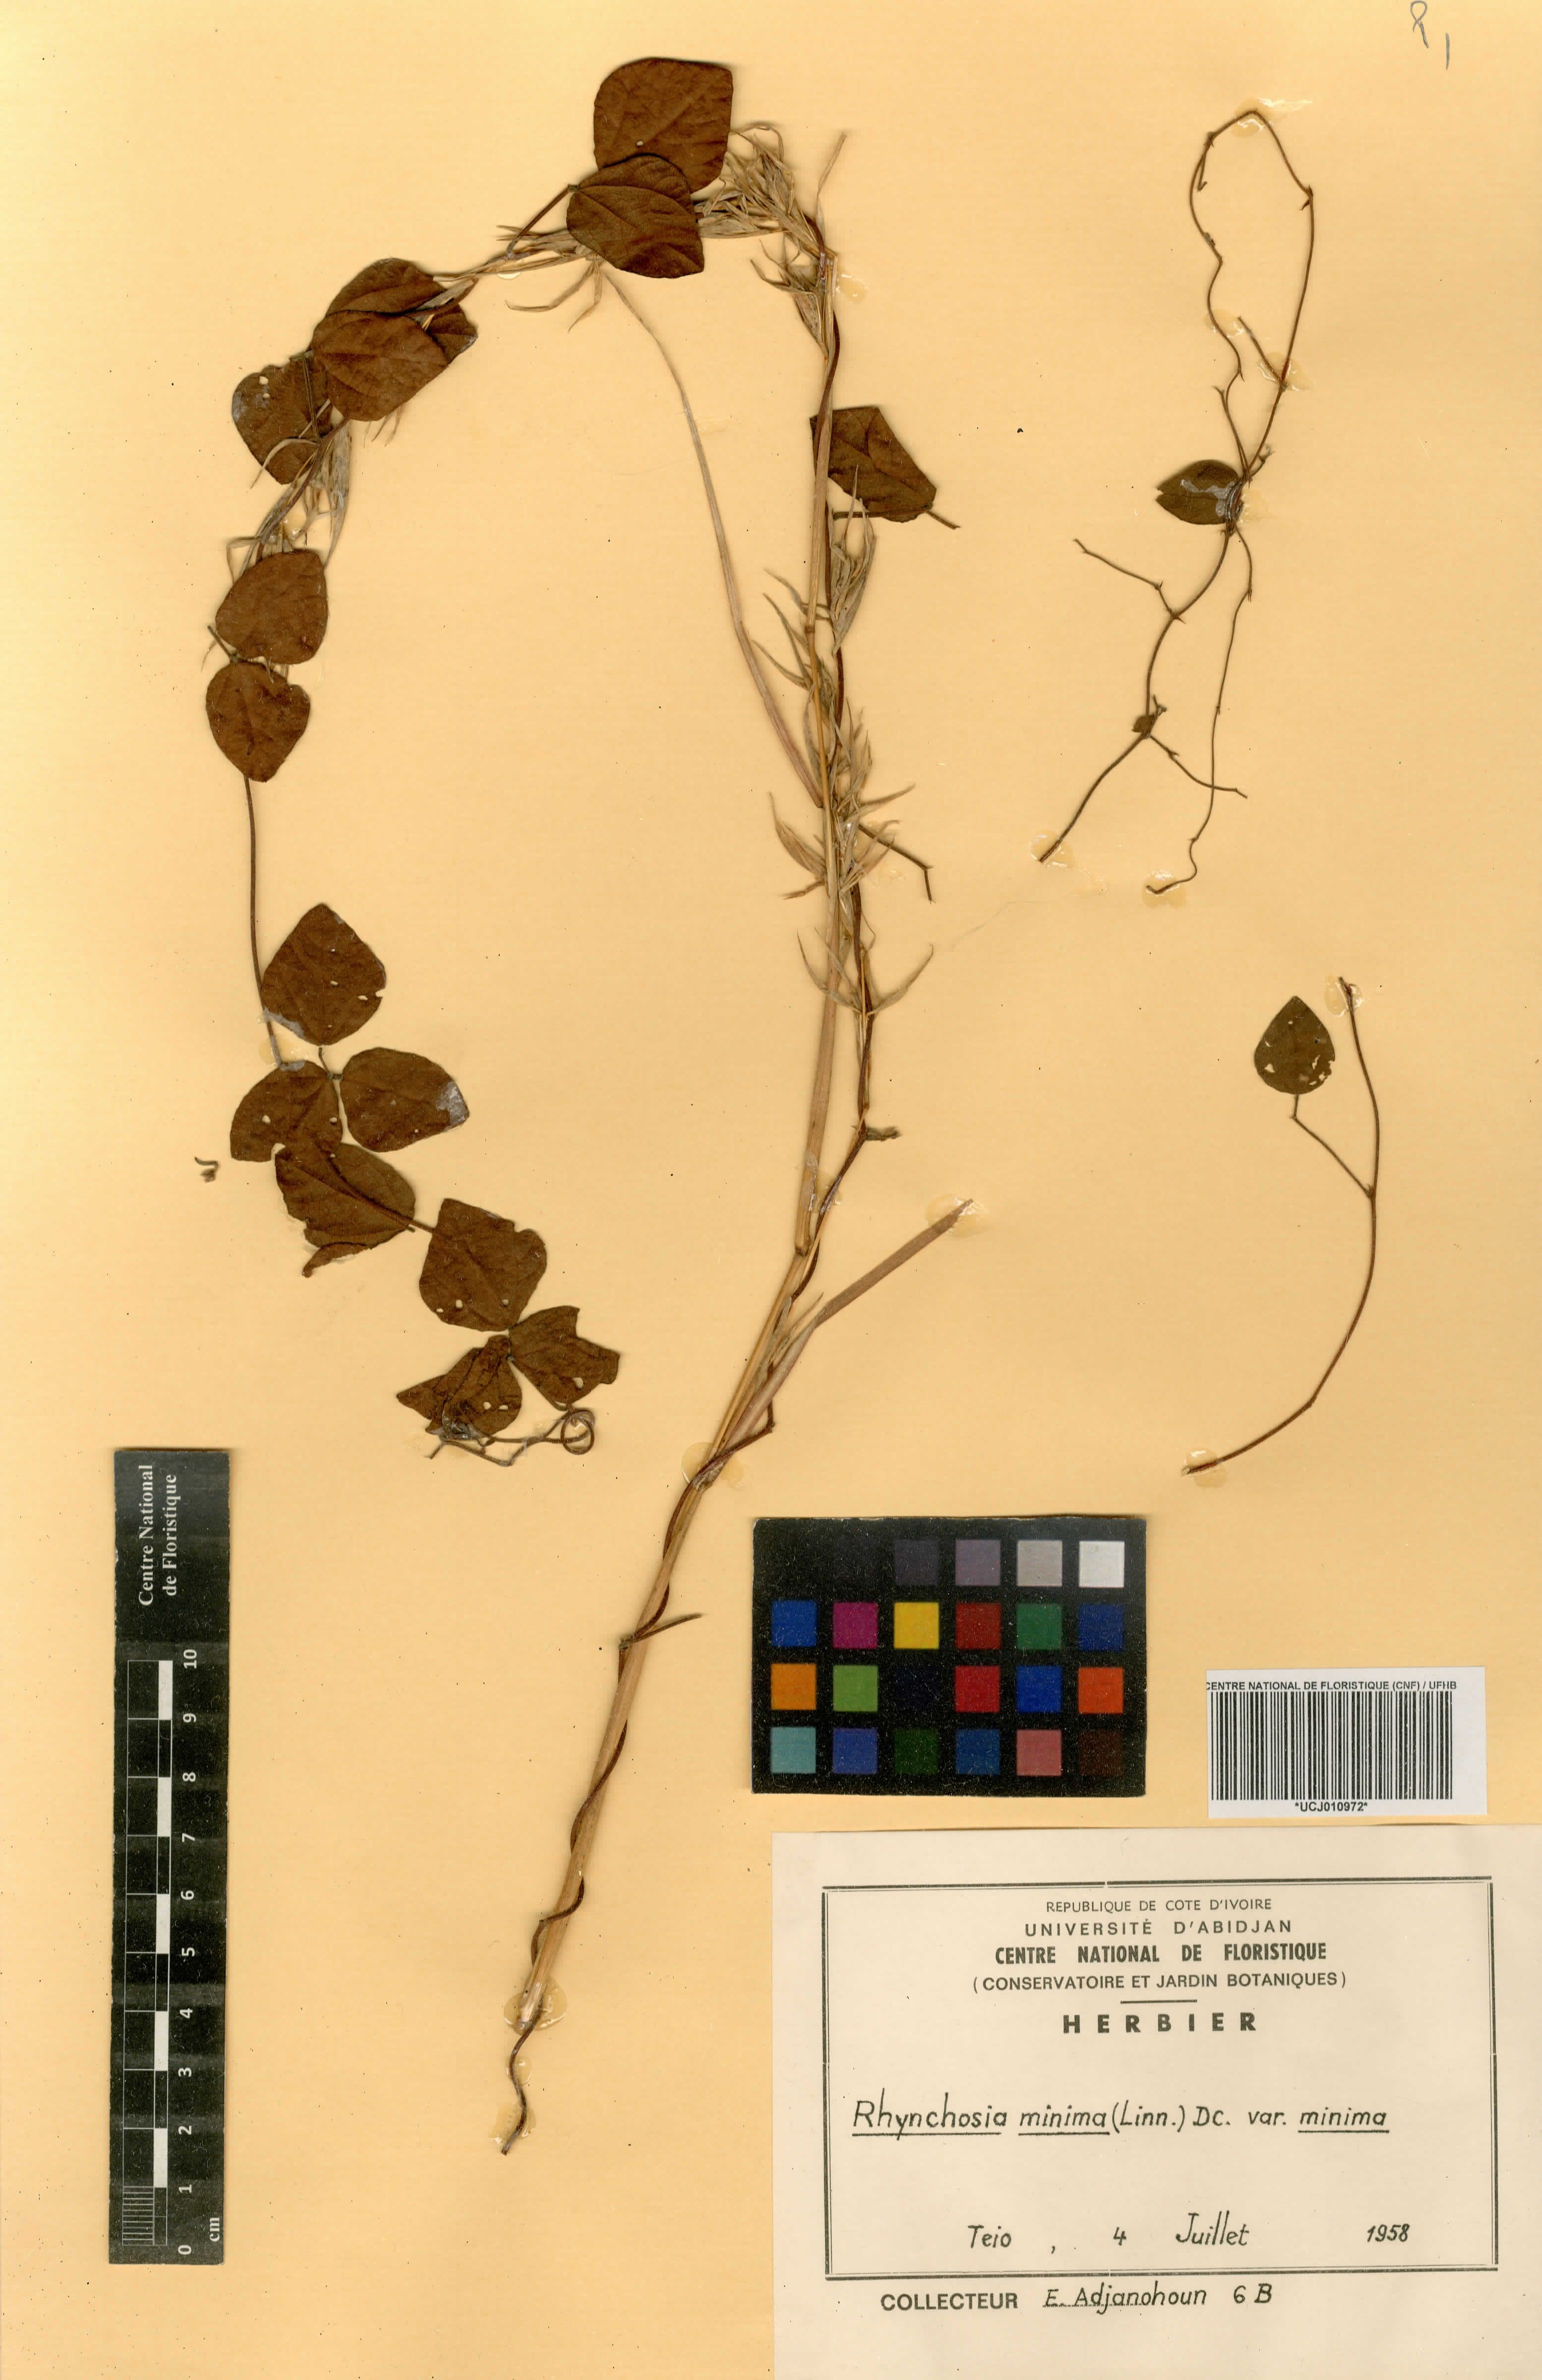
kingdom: Plantae
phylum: Tracheophyta
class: Magnoliopsida
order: Fabales
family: Fabaceae
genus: Rhynchosia
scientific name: Rhynchosia minima
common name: Least snoutbean
